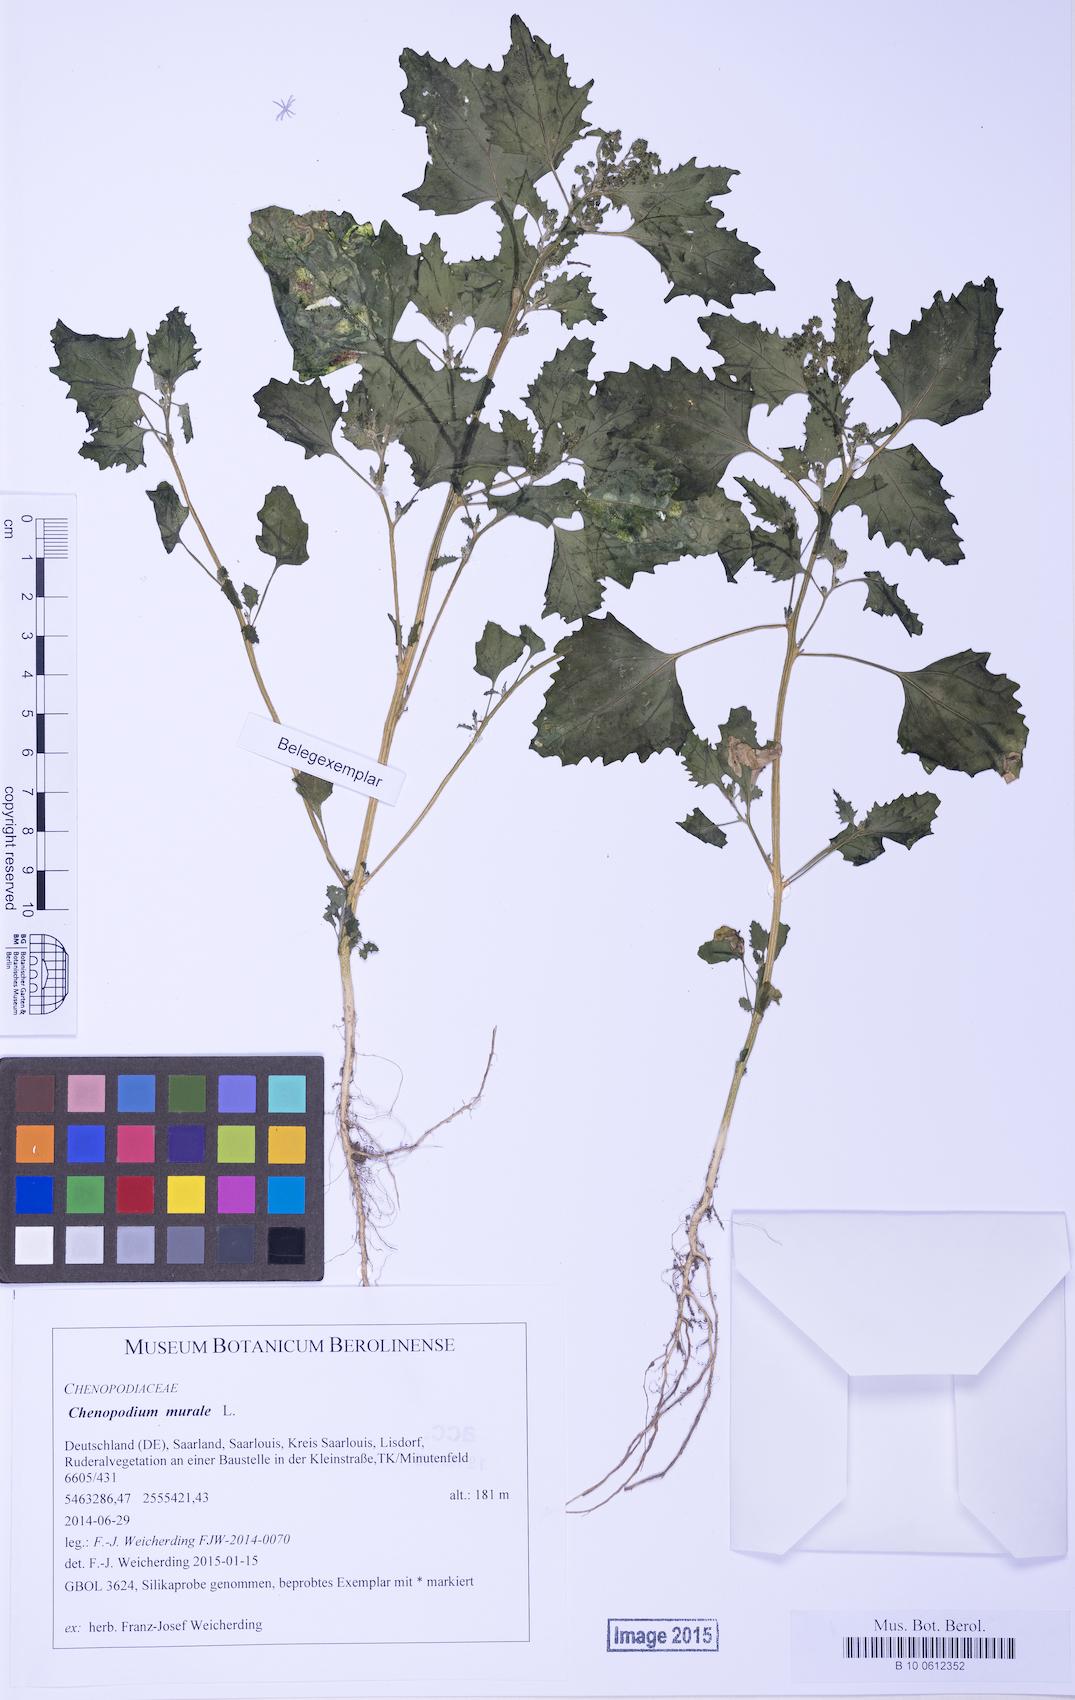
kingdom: Plantae
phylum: Tracheophyta
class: Magnoliopsida
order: Caryophyllales
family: Amaranthaceae
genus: Chenopodiastrum
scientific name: Chenopodiastrum murale
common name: Sowbane
